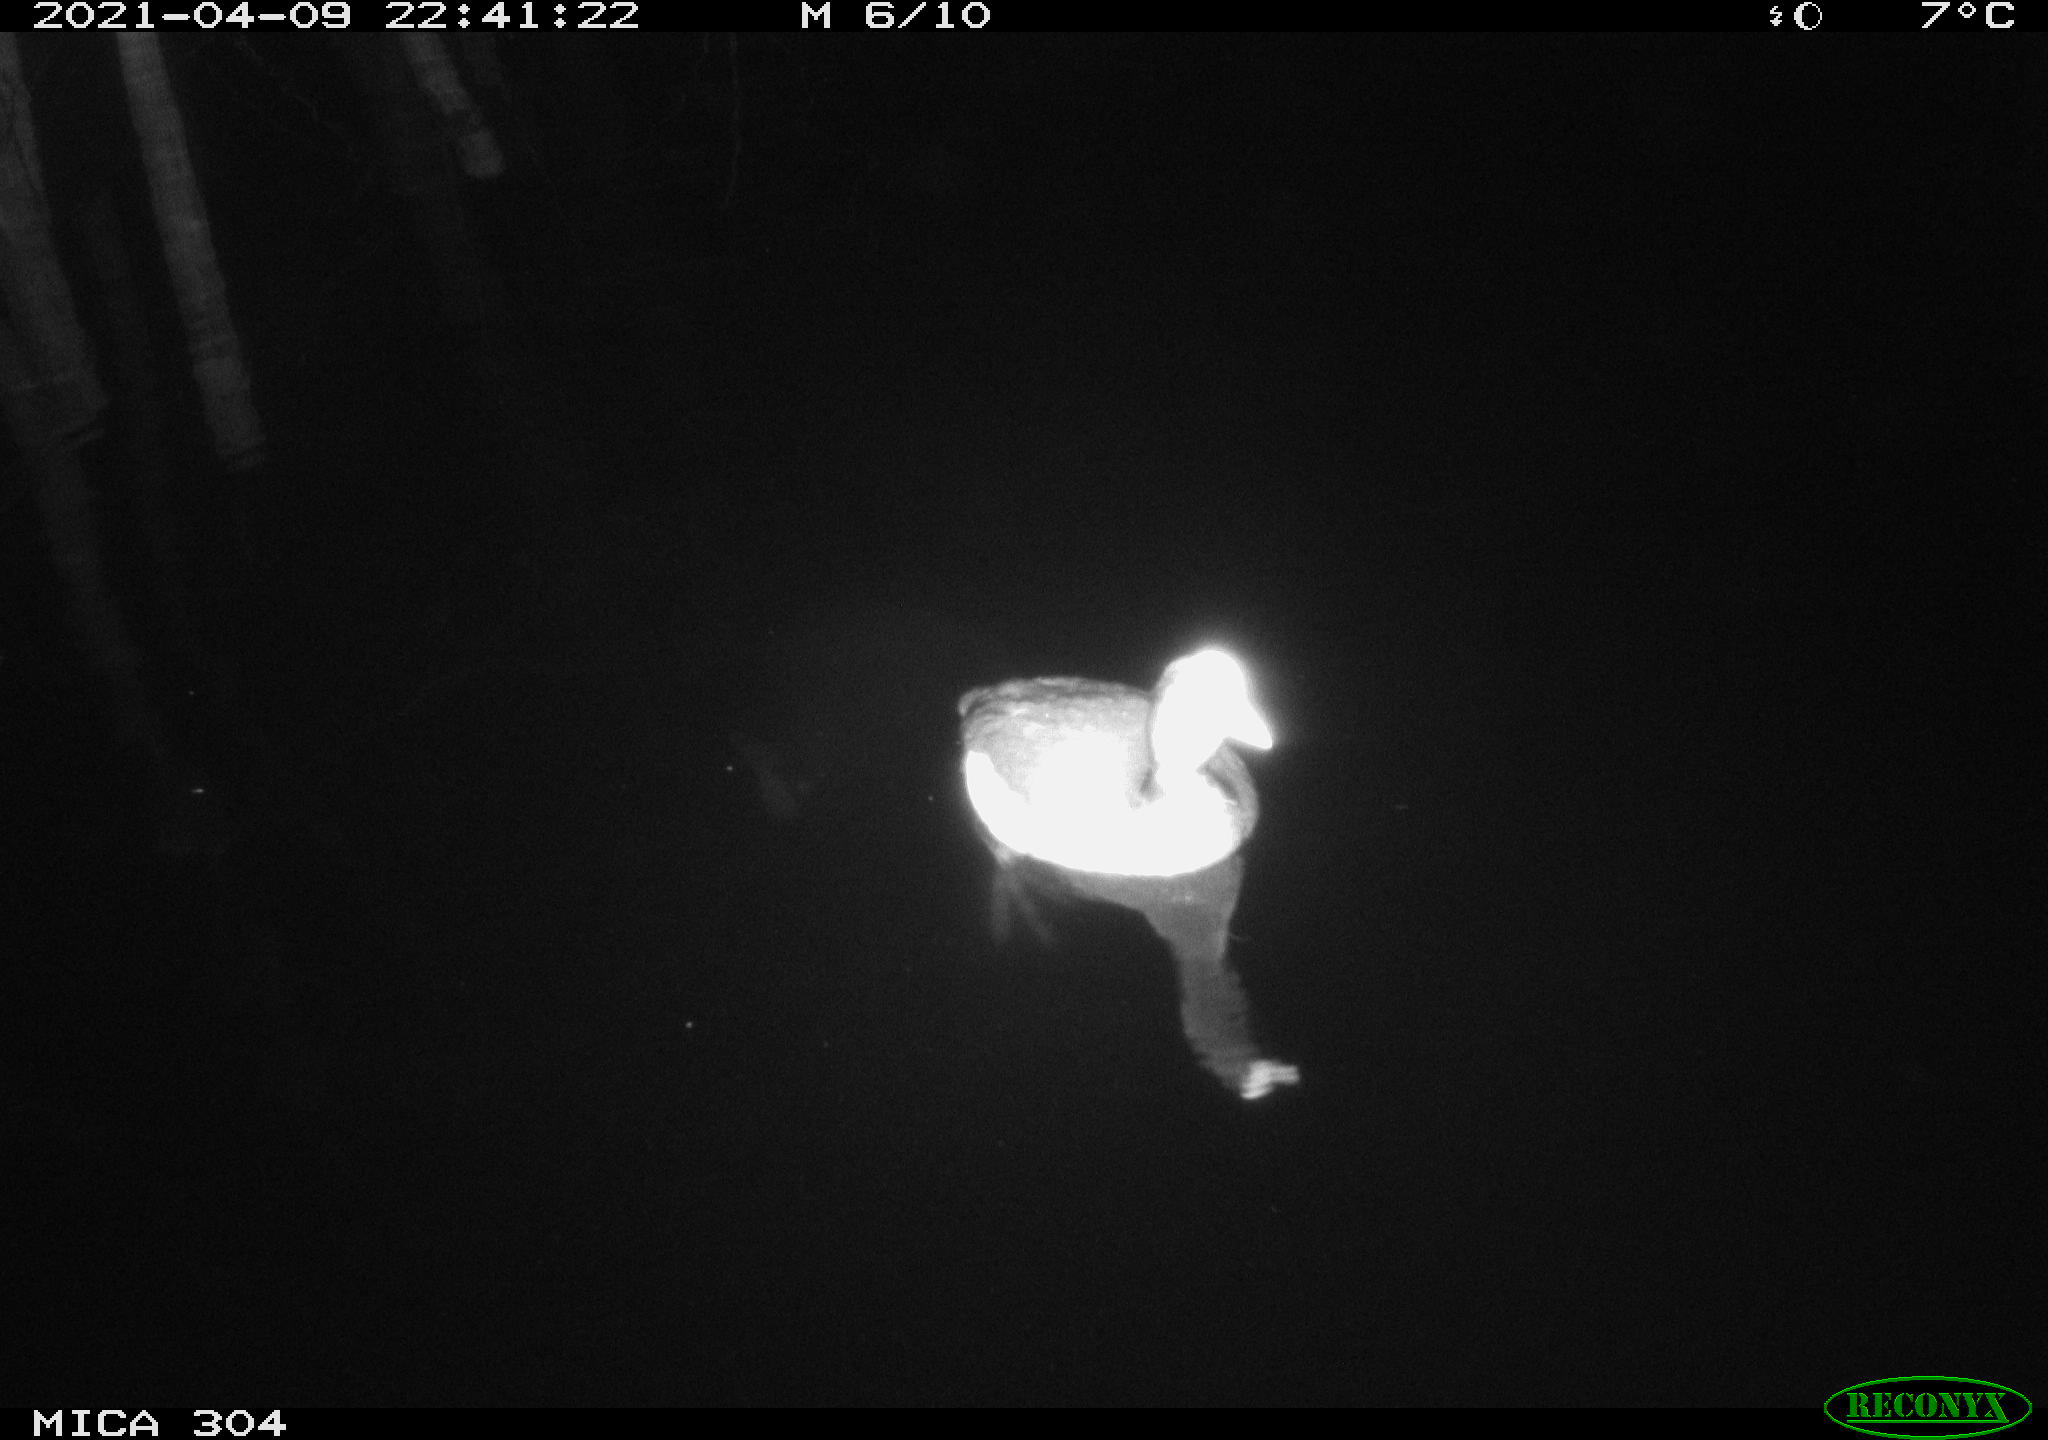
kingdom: Animalia
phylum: Chordata
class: Aves
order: Anseriformes
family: Anatidae
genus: Anas
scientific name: Anas
